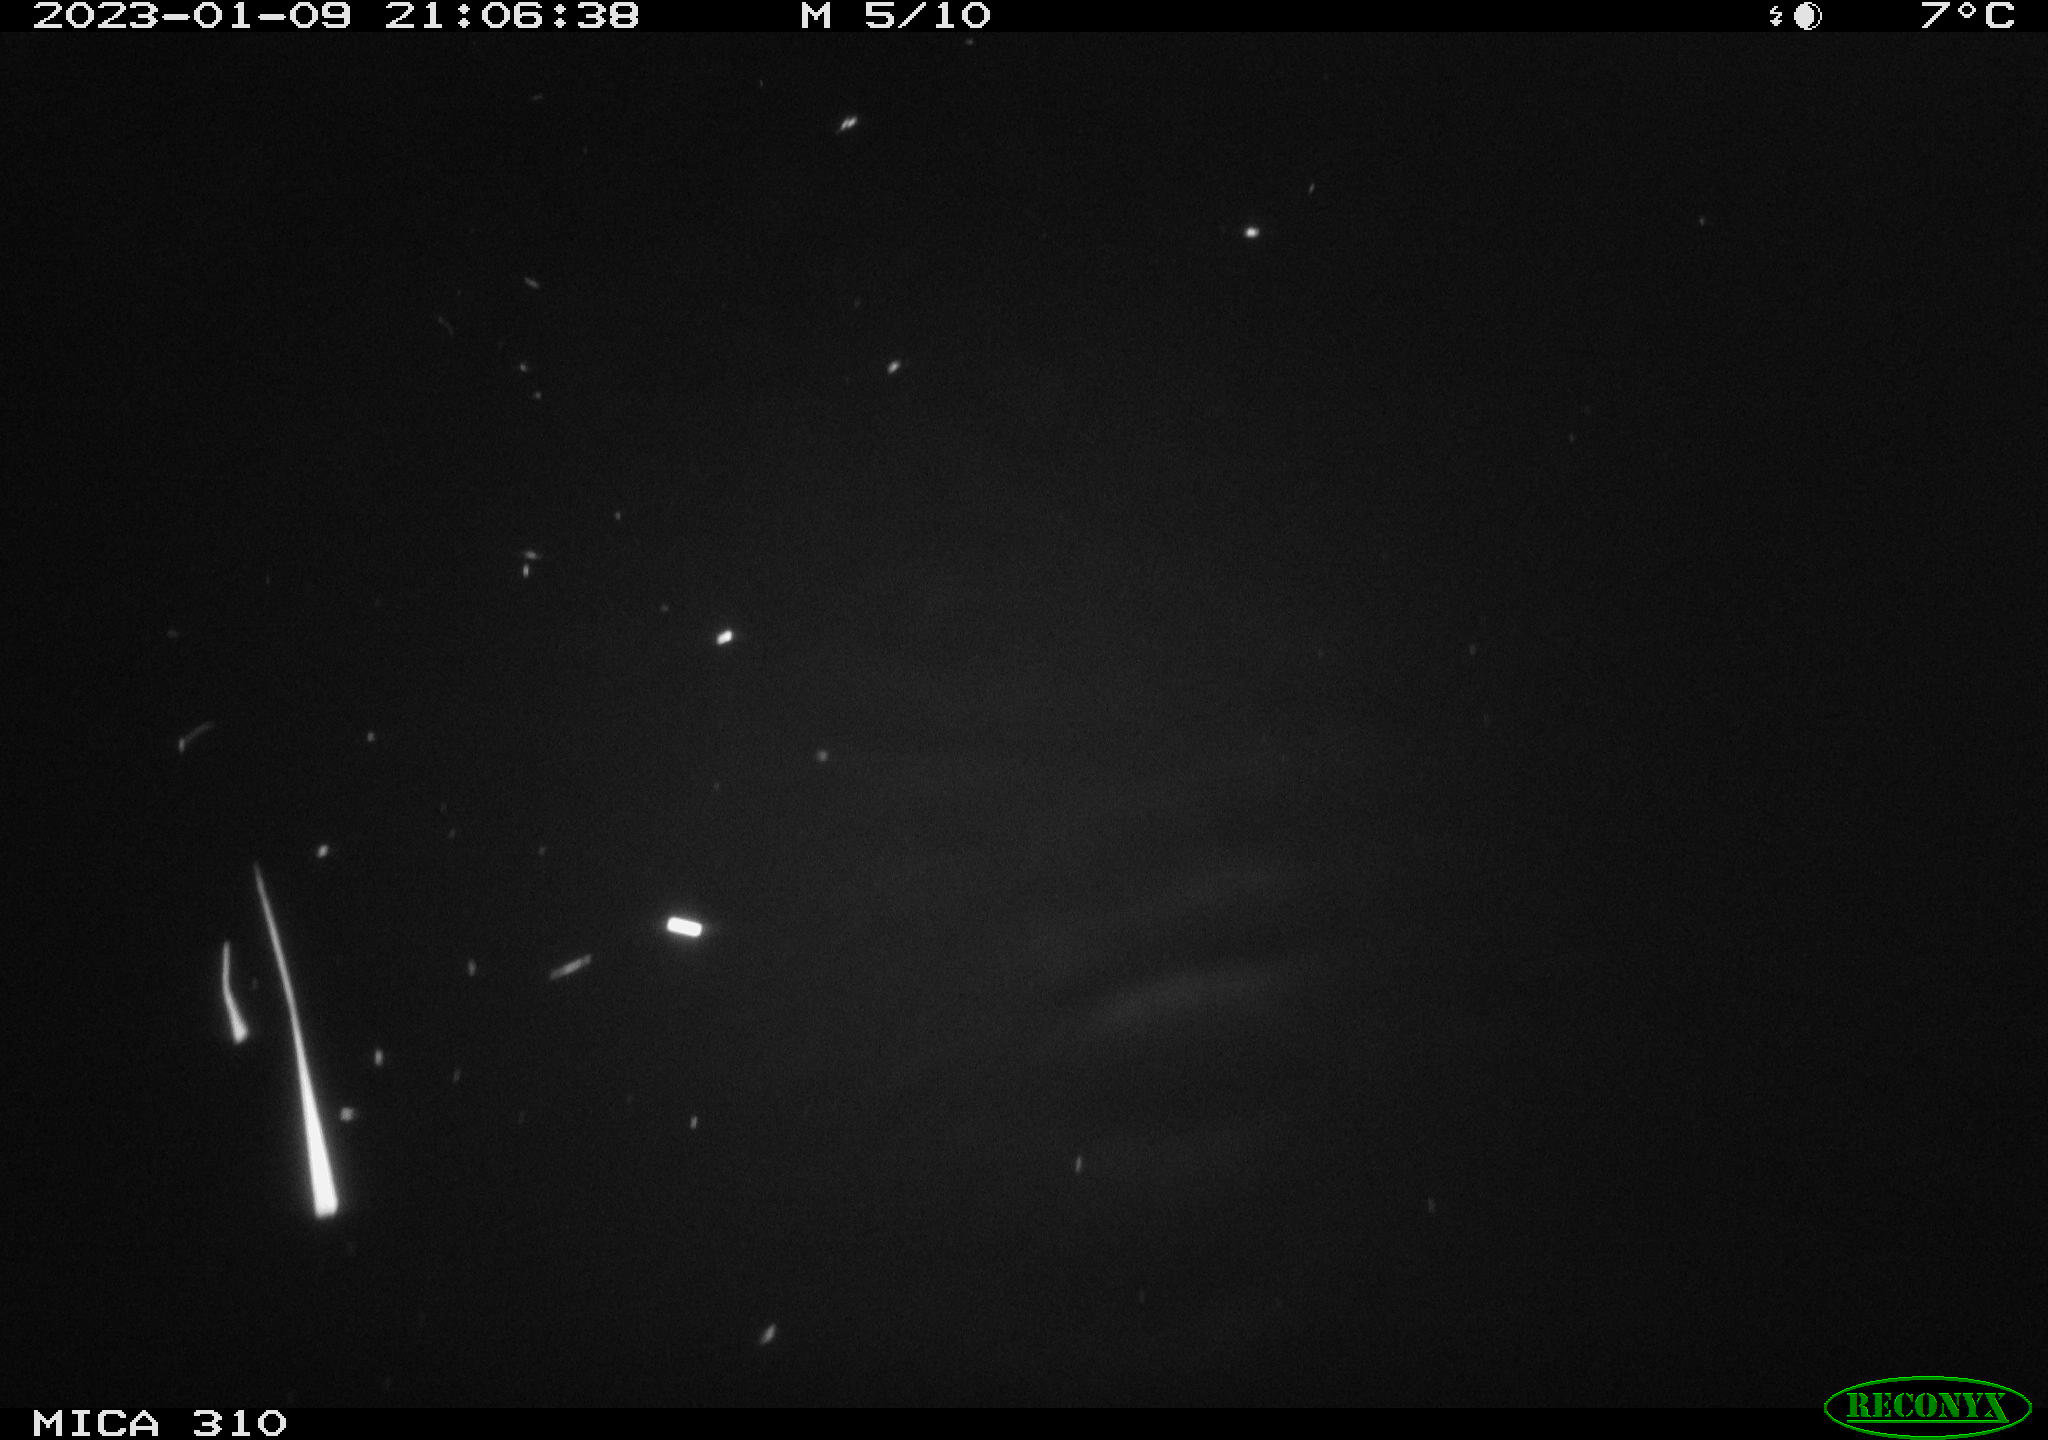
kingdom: Animalia
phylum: Chordata
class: Mammalia
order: Rodentia
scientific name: Rodentia
